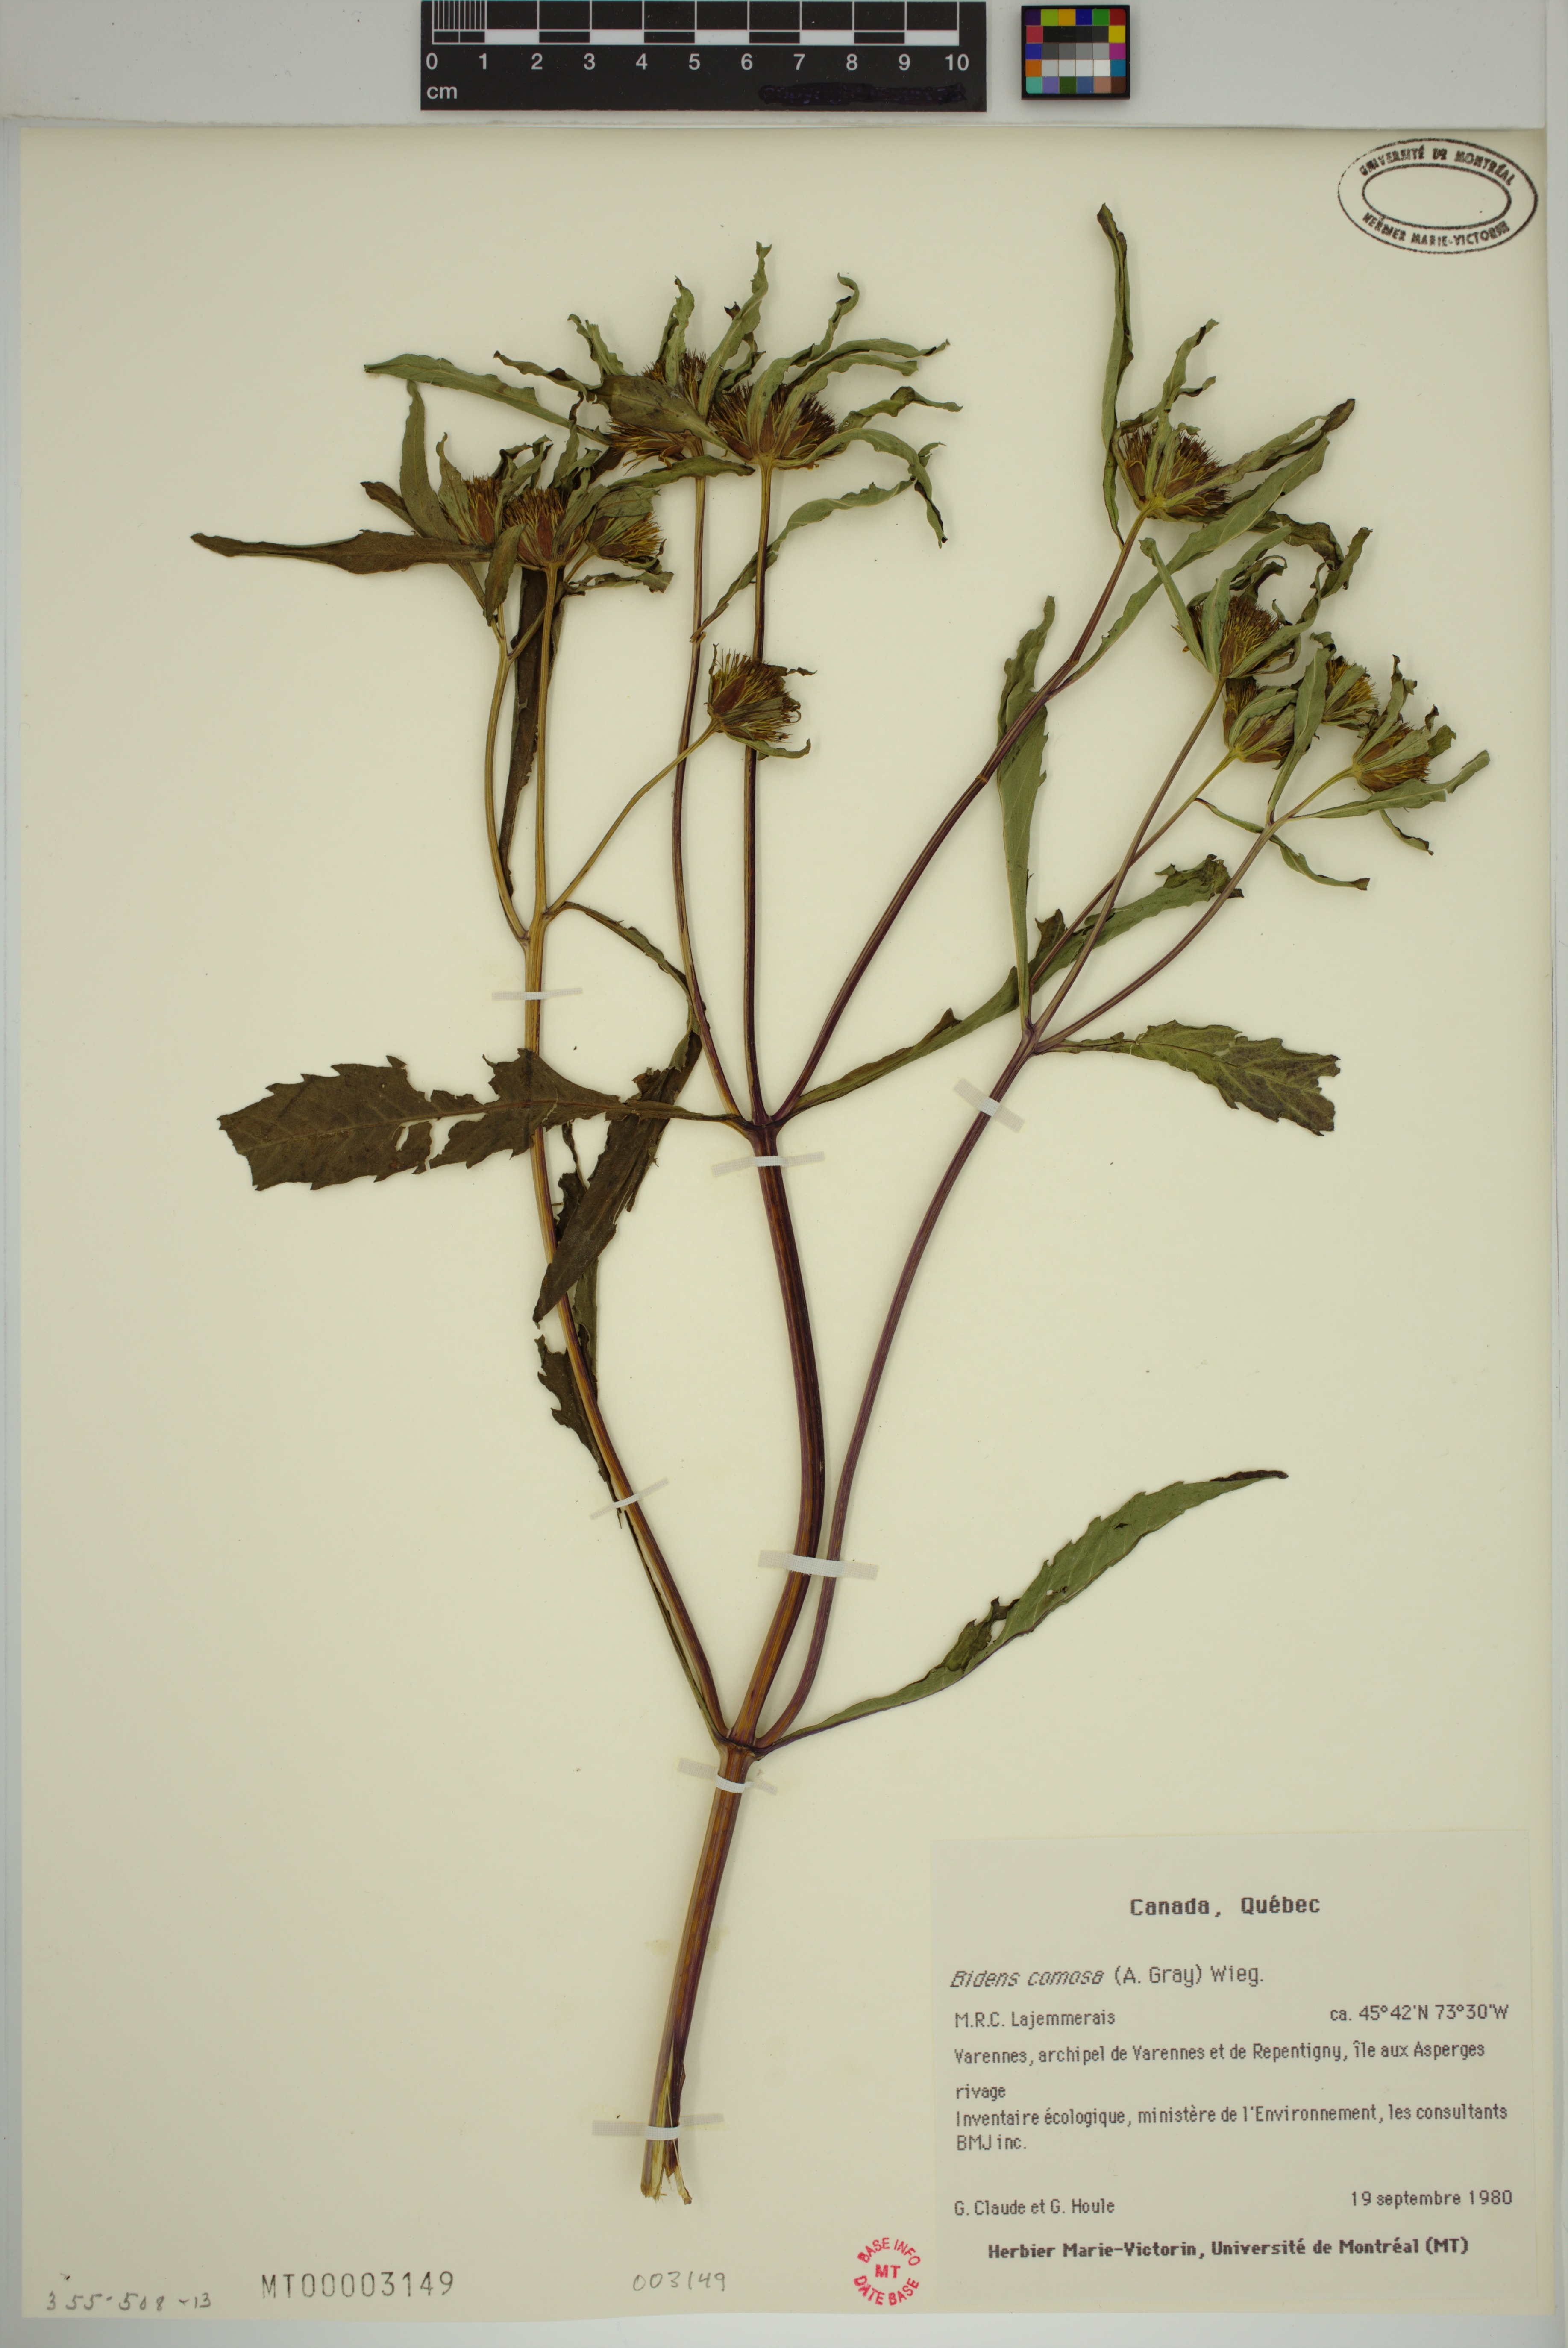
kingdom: Plantae
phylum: Tracheophyta
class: Magnoliopsida
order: Asterales
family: Asteraceae
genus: Bidens
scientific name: Bidens tripartita
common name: Trifid bur-marigold
